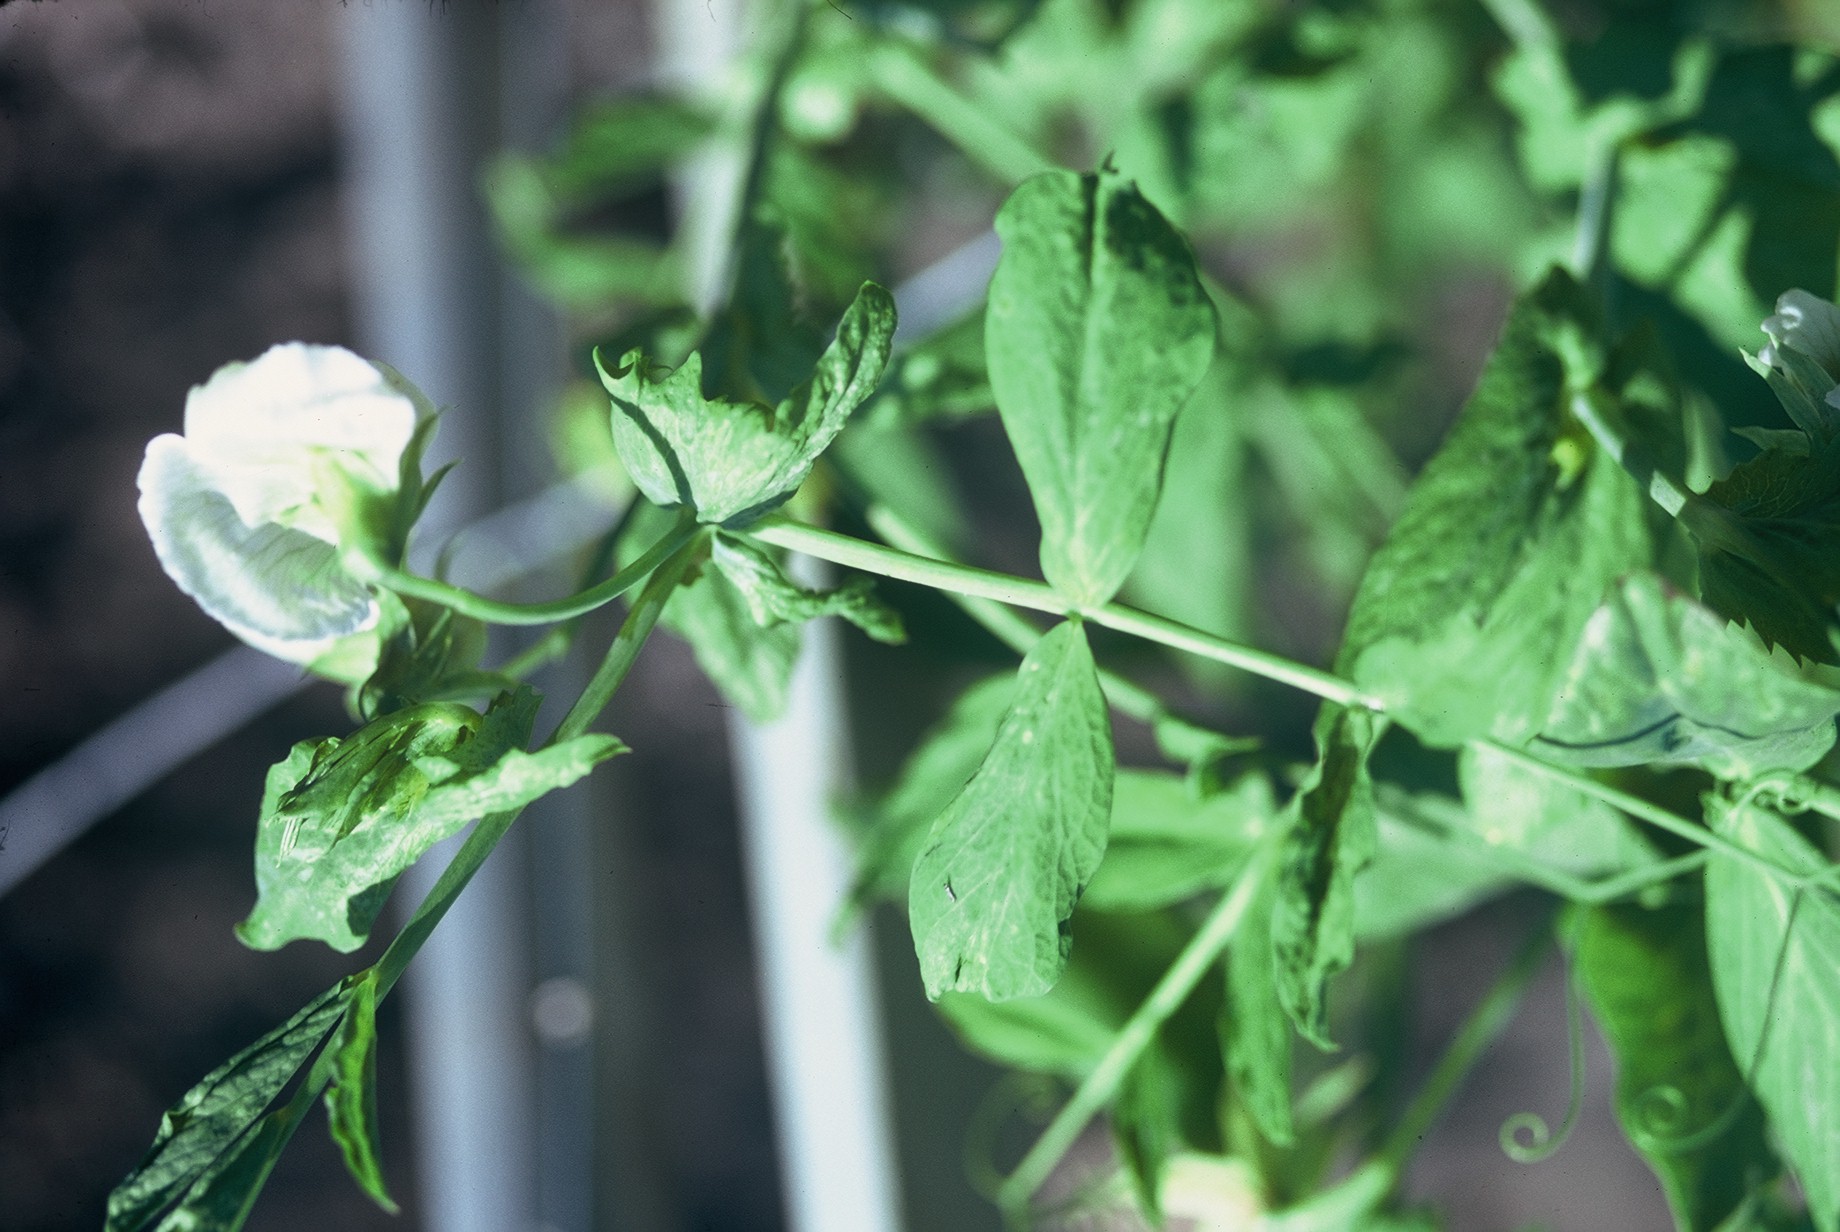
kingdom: Plantae
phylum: Tracheophyta
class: Magnoliopsida
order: Fabales
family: Fabaceae
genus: Lathyrus
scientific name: Lathyrus oleraceus
